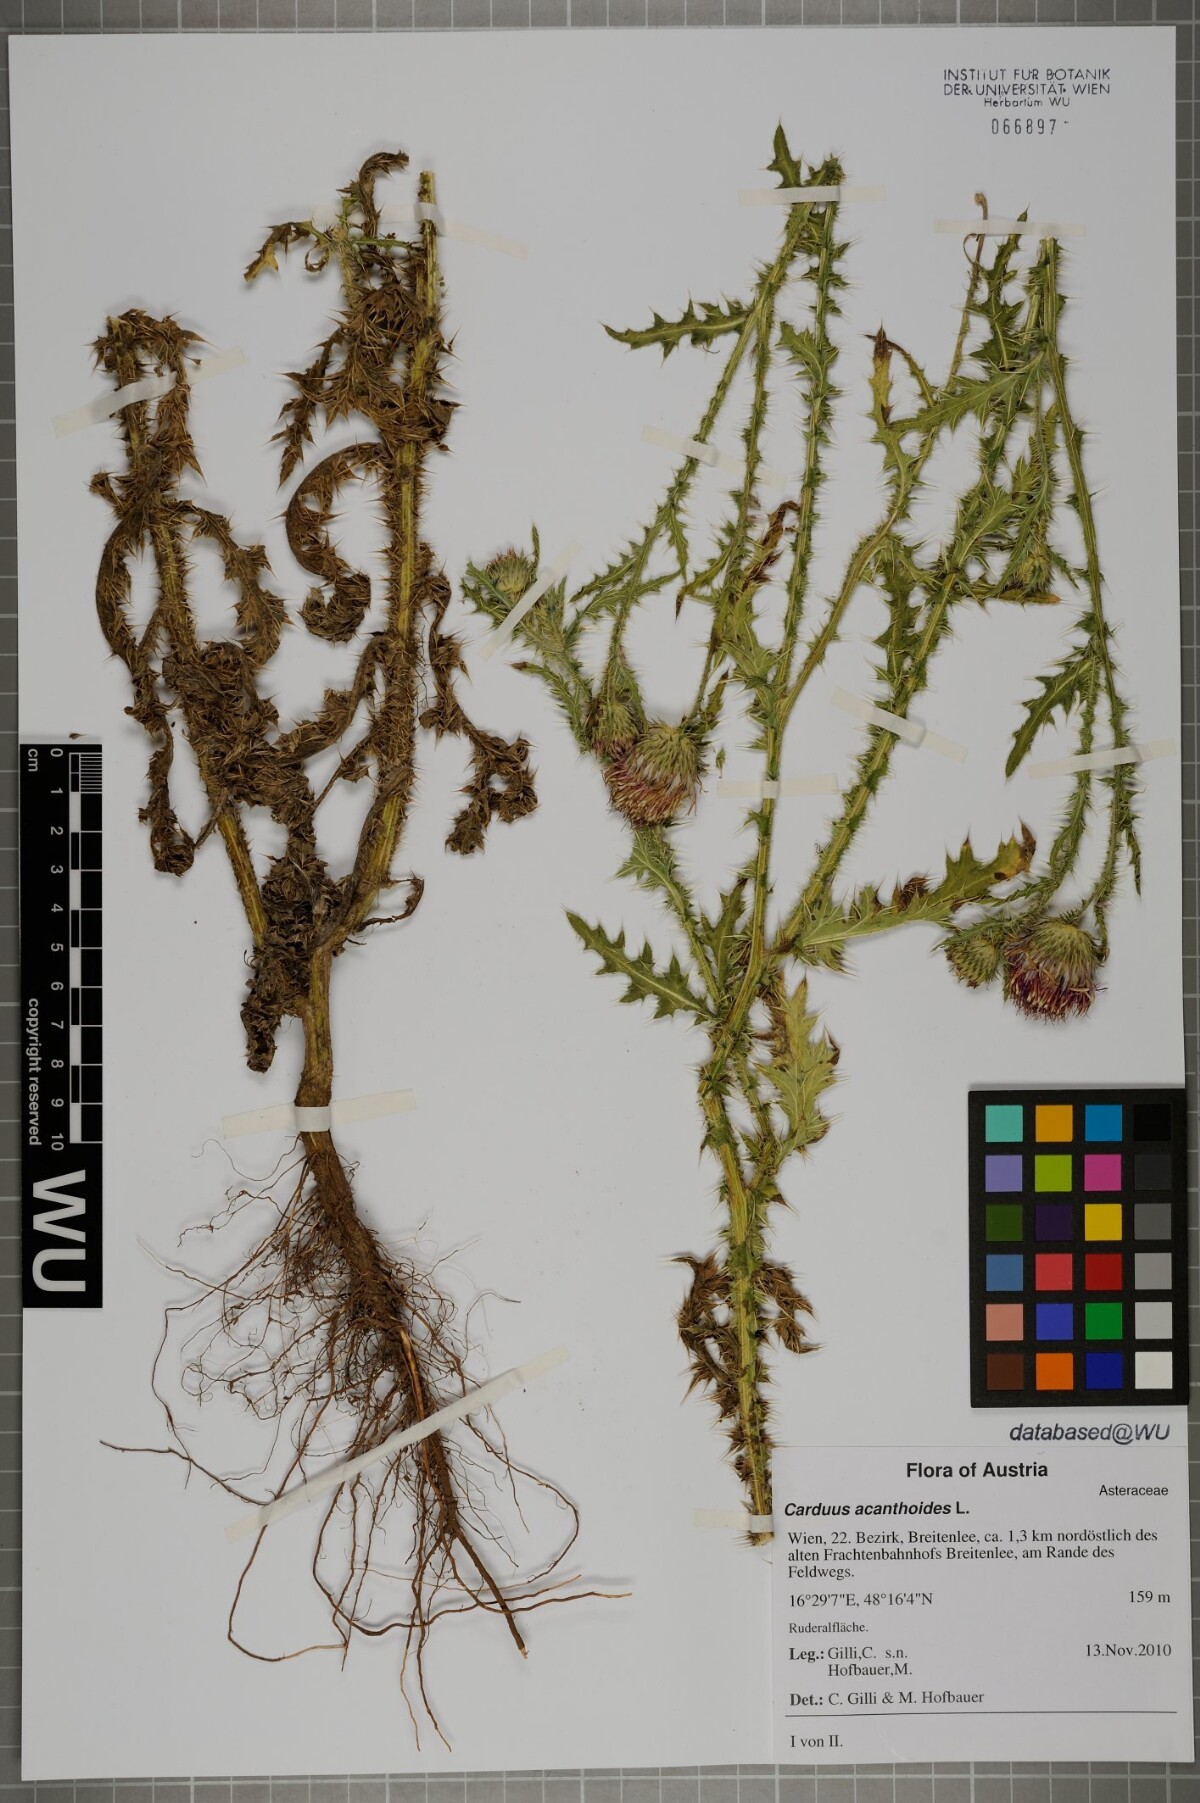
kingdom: Plantae
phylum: Tracheophyta
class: Magnoliopsida
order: Asterales
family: Asteraceae
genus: Carduus
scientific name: Carduus acanthoides
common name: Plumeless thistle
